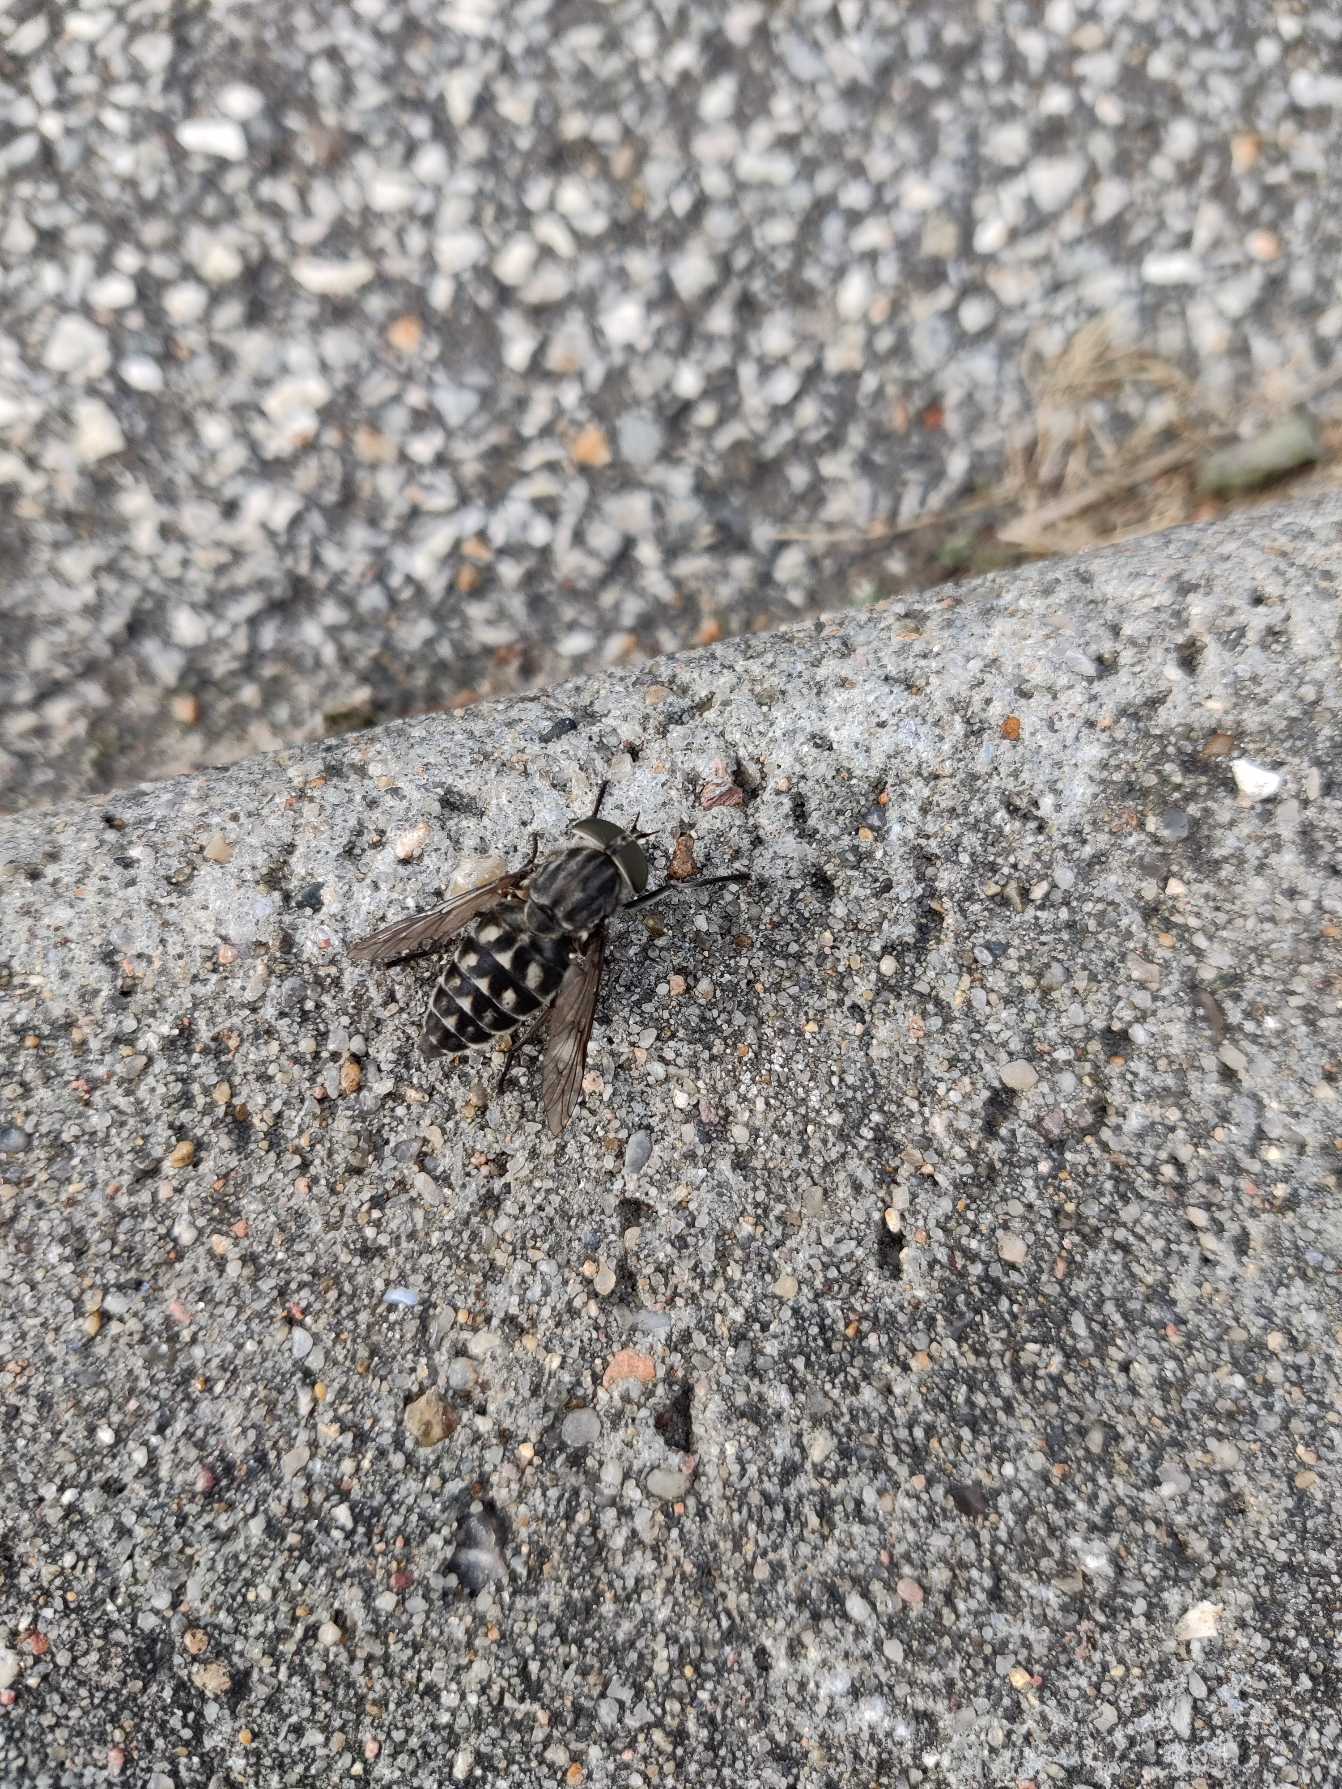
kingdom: Animalia
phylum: Arthropoda
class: Insecta
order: Diptera
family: Tabanidae
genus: Tabanus
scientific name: Tabanus autumnalis
